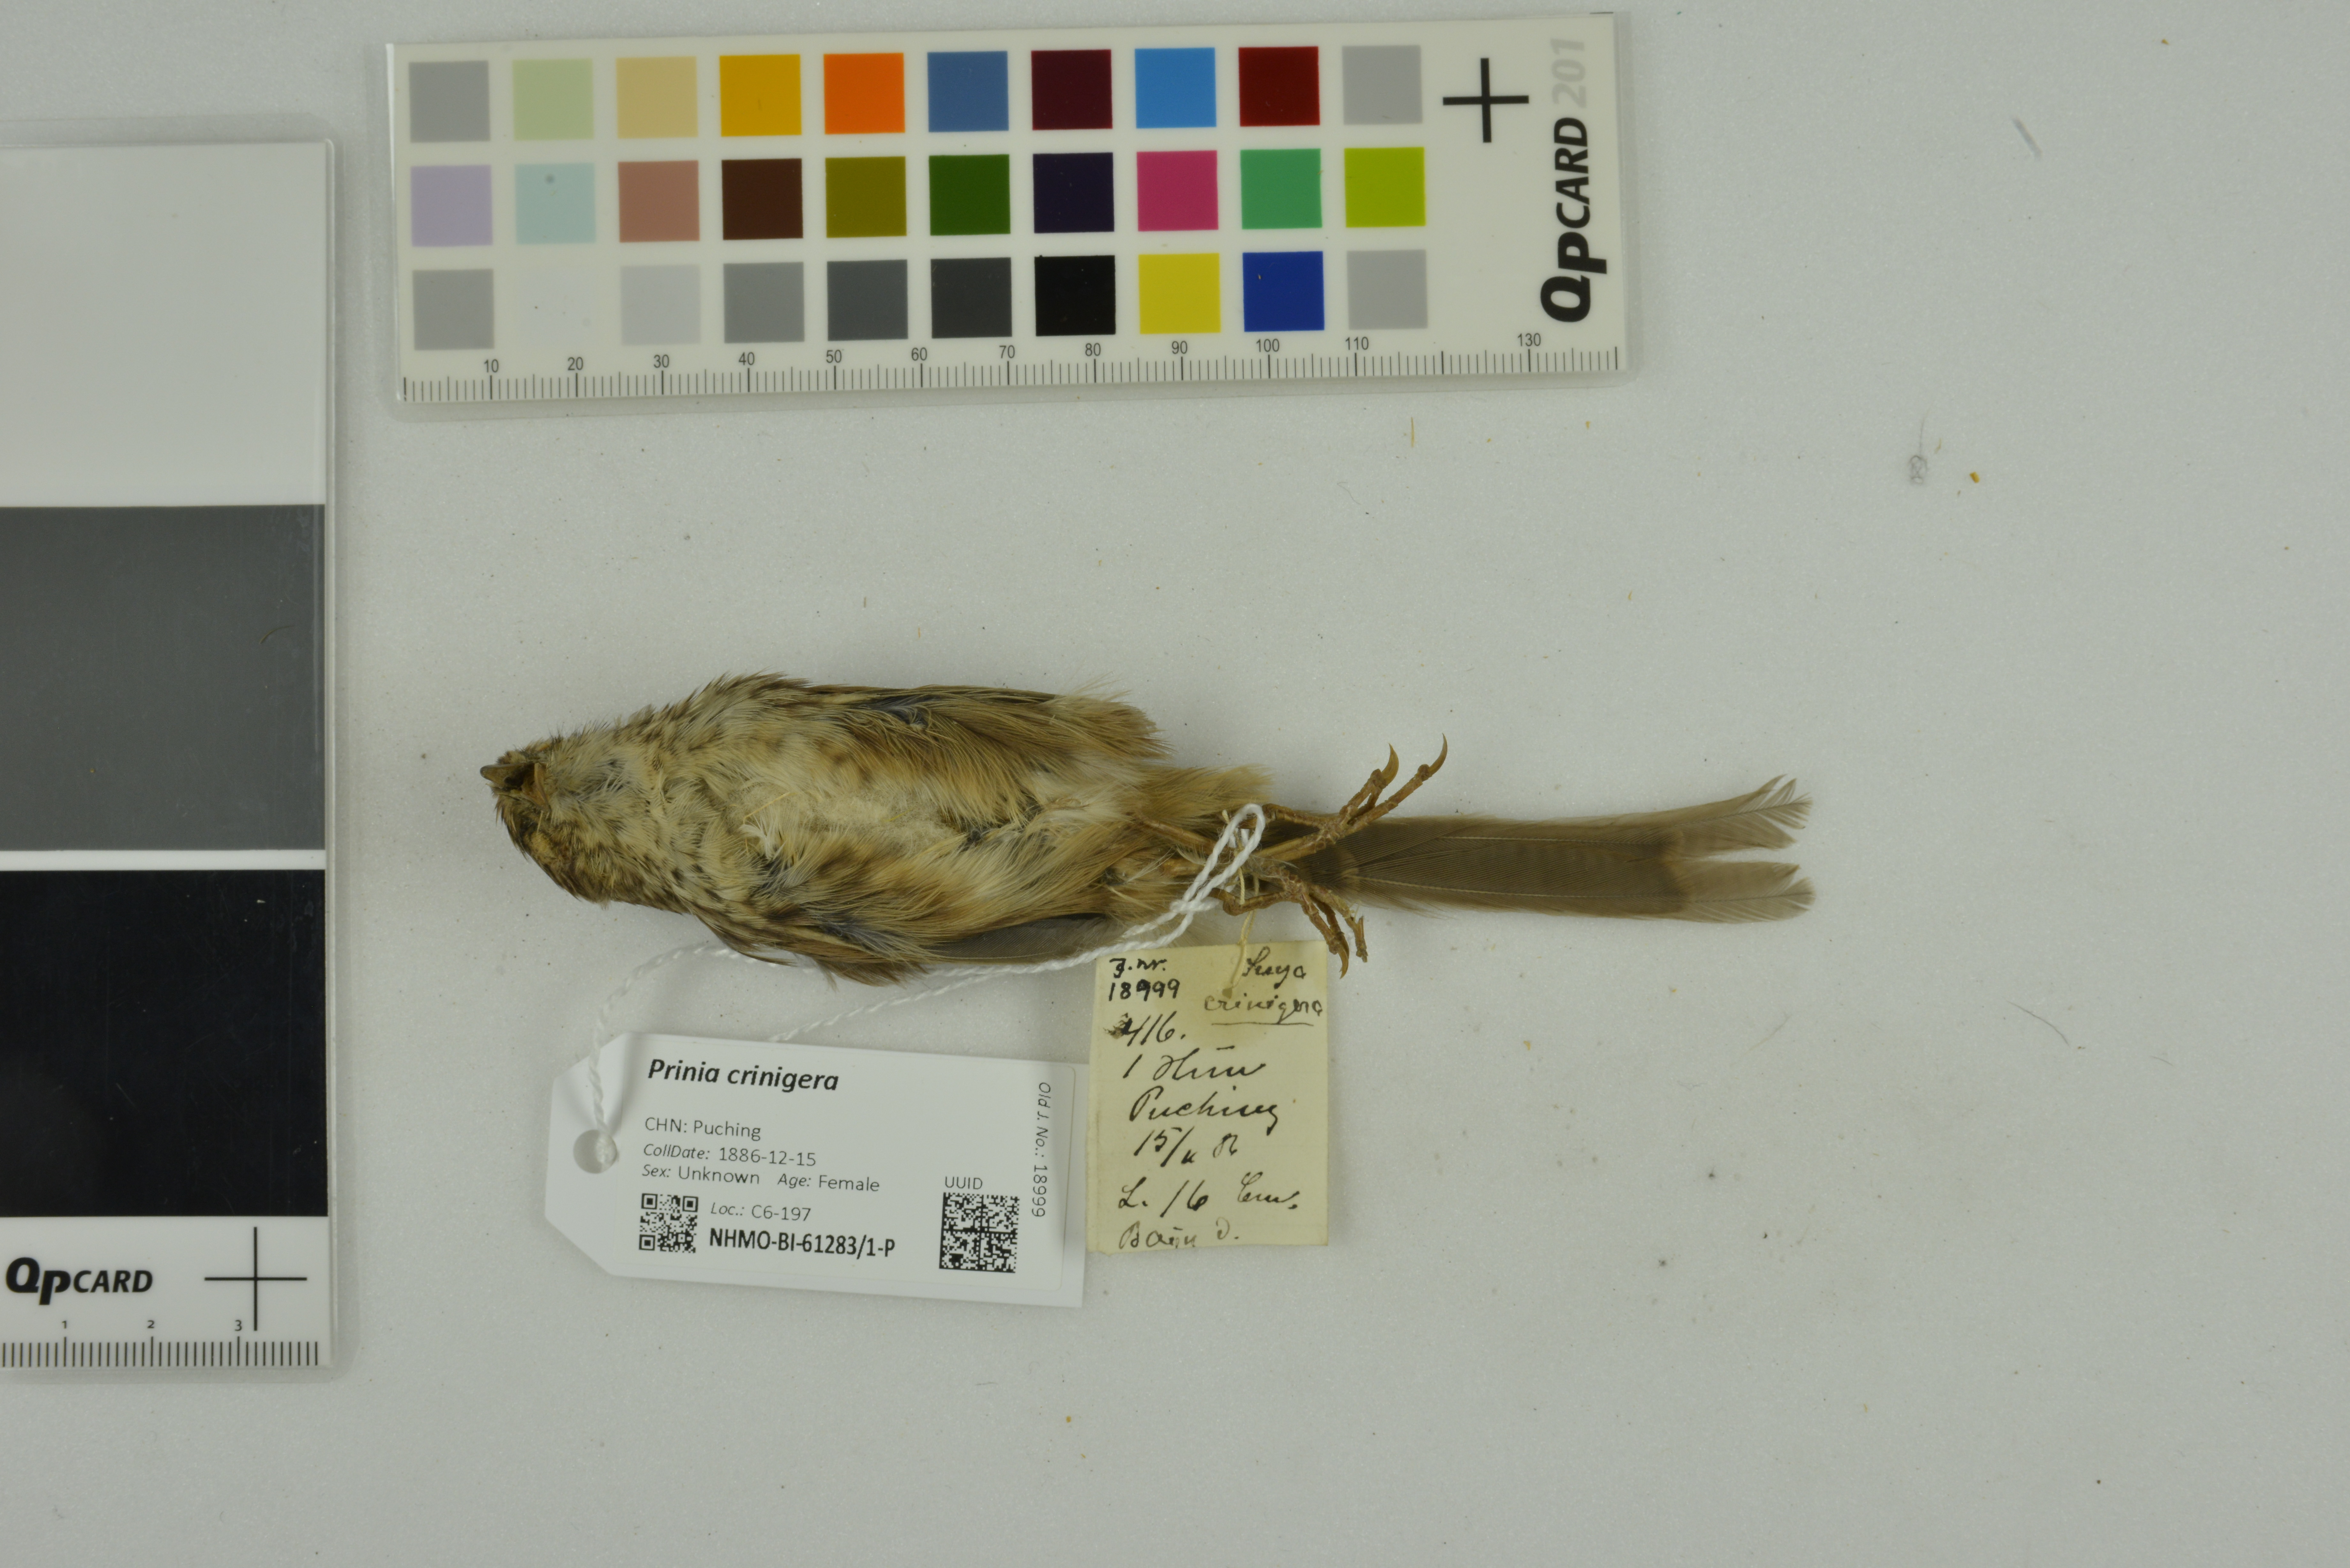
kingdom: Animalia
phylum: Chordata
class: Aves
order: Passeriformes
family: Cisticolidae
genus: Prinia
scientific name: Prinia crinigera
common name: Striated prinia
